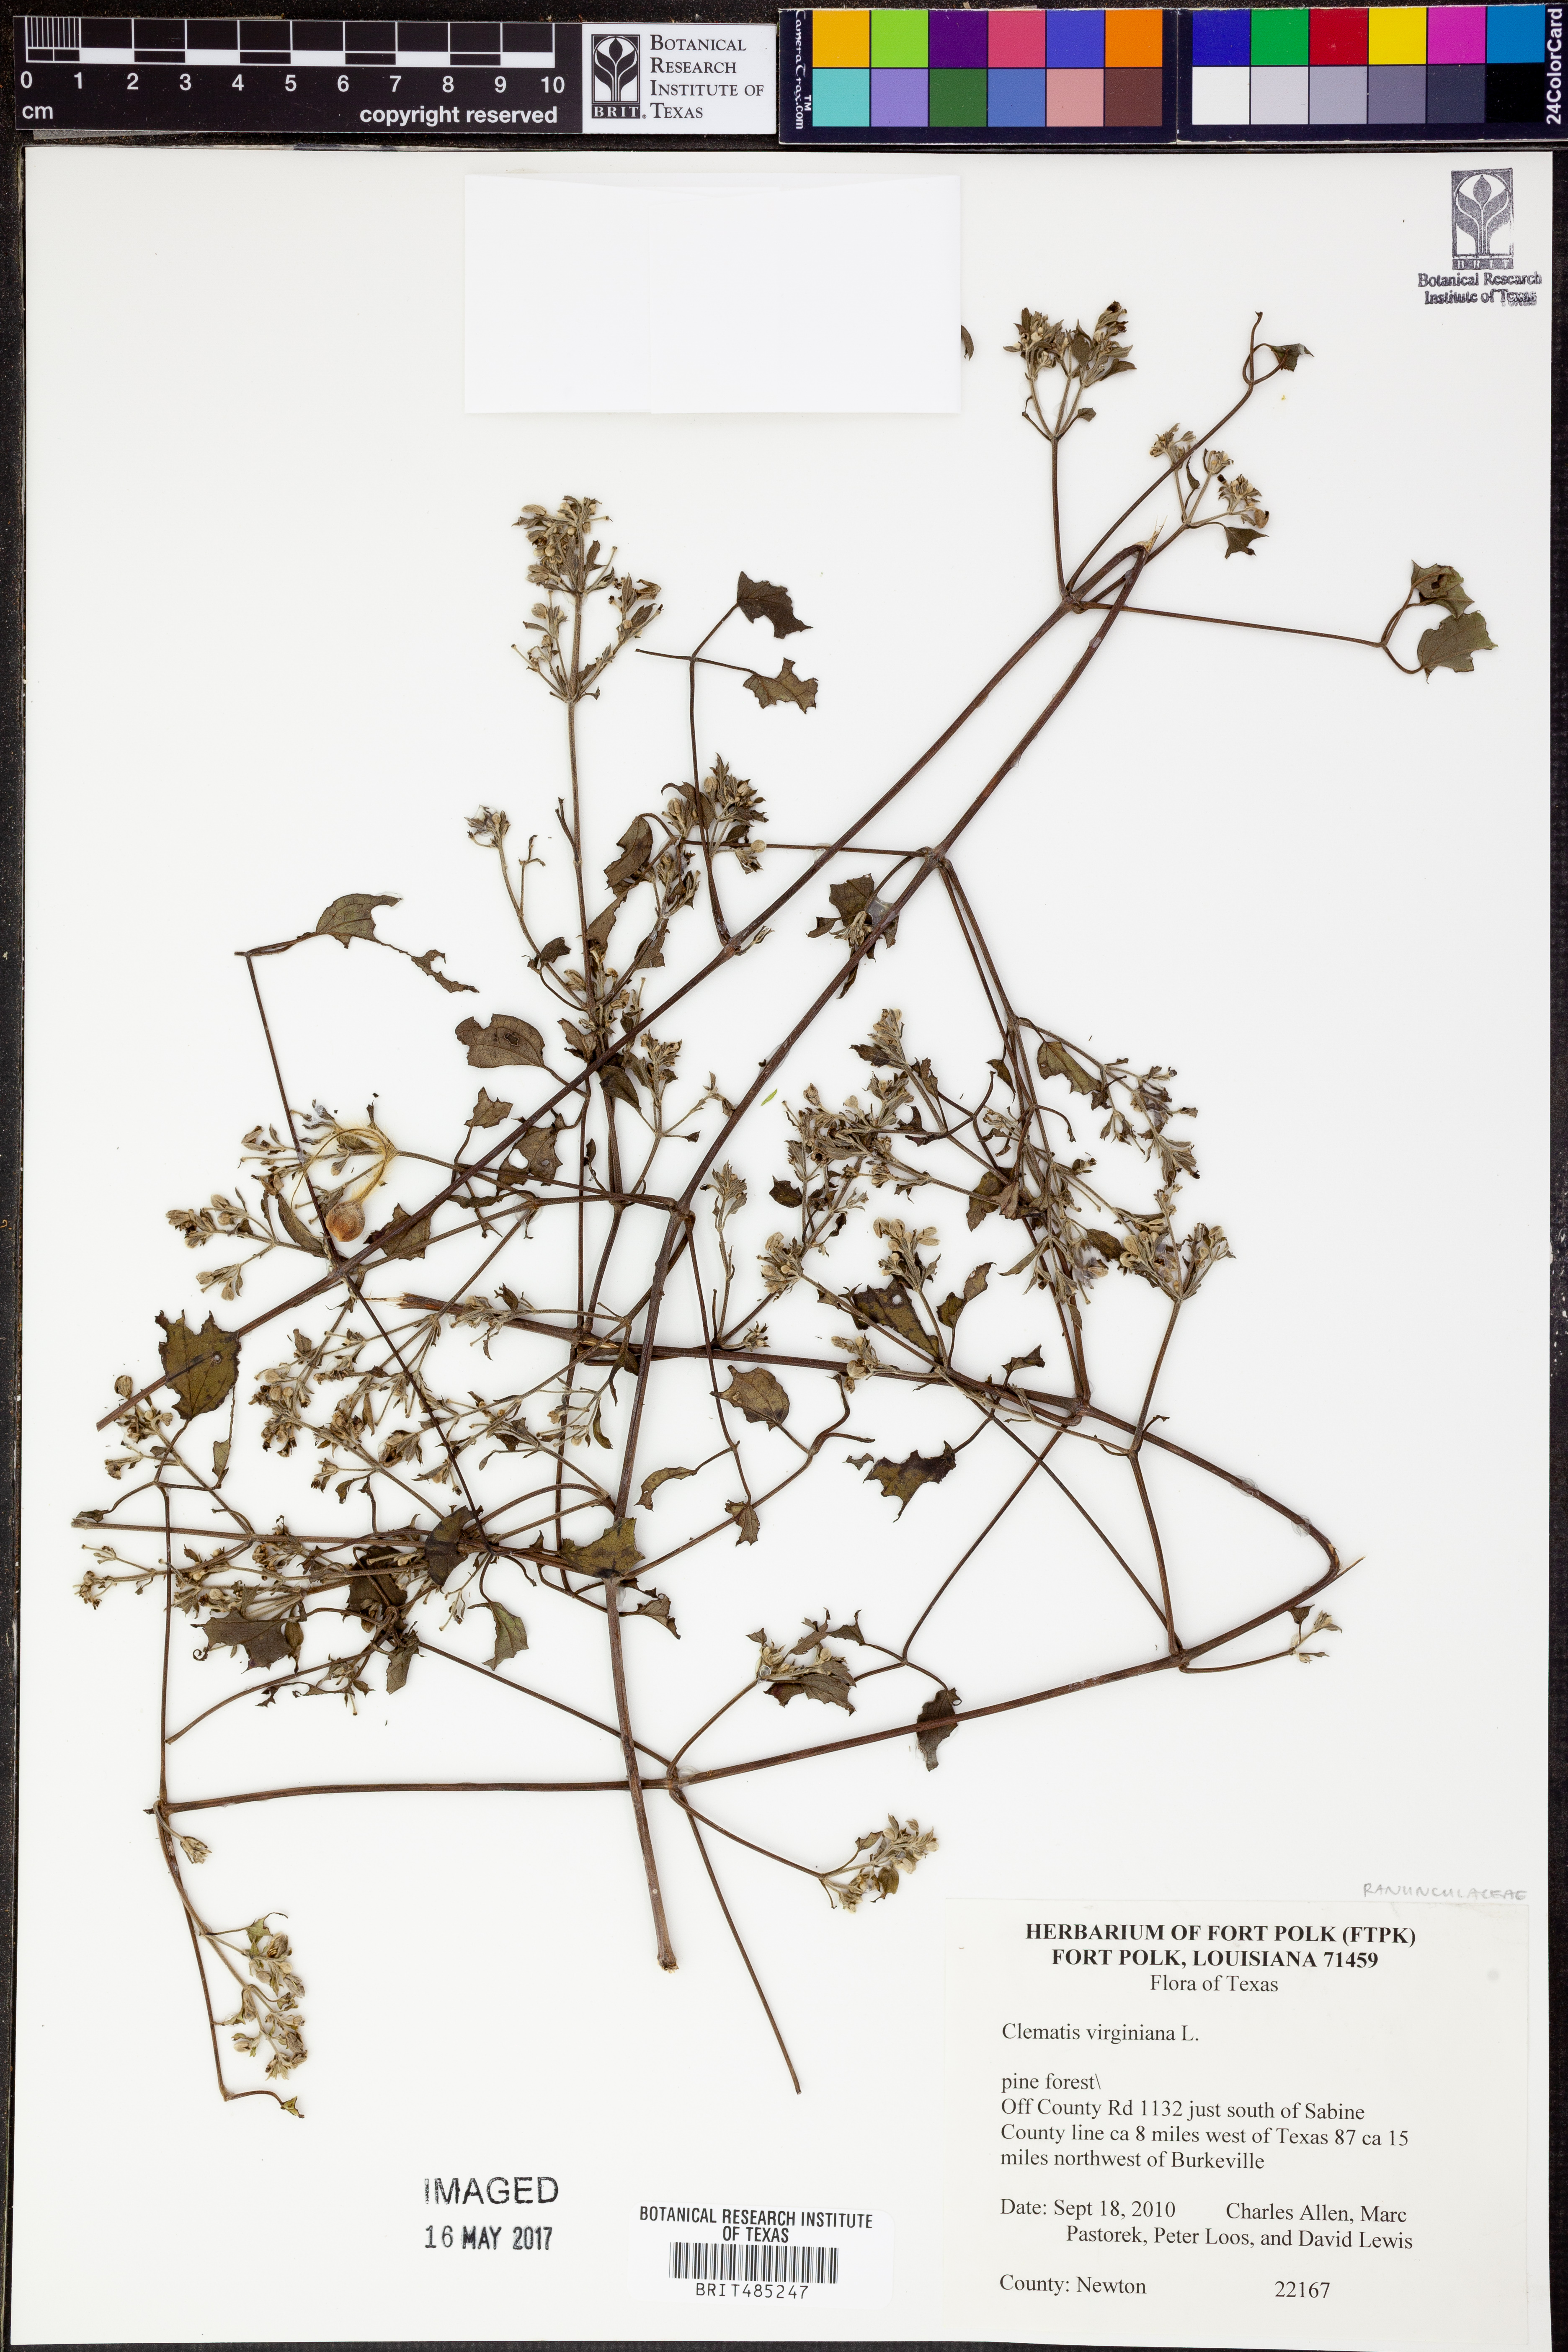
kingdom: Plantae
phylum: Tracheophyta
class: Magnoliopsida
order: Ranunculales
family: Ranunculaceae
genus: Clematis
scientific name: Clematis virginiana
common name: Virgin's-bower
